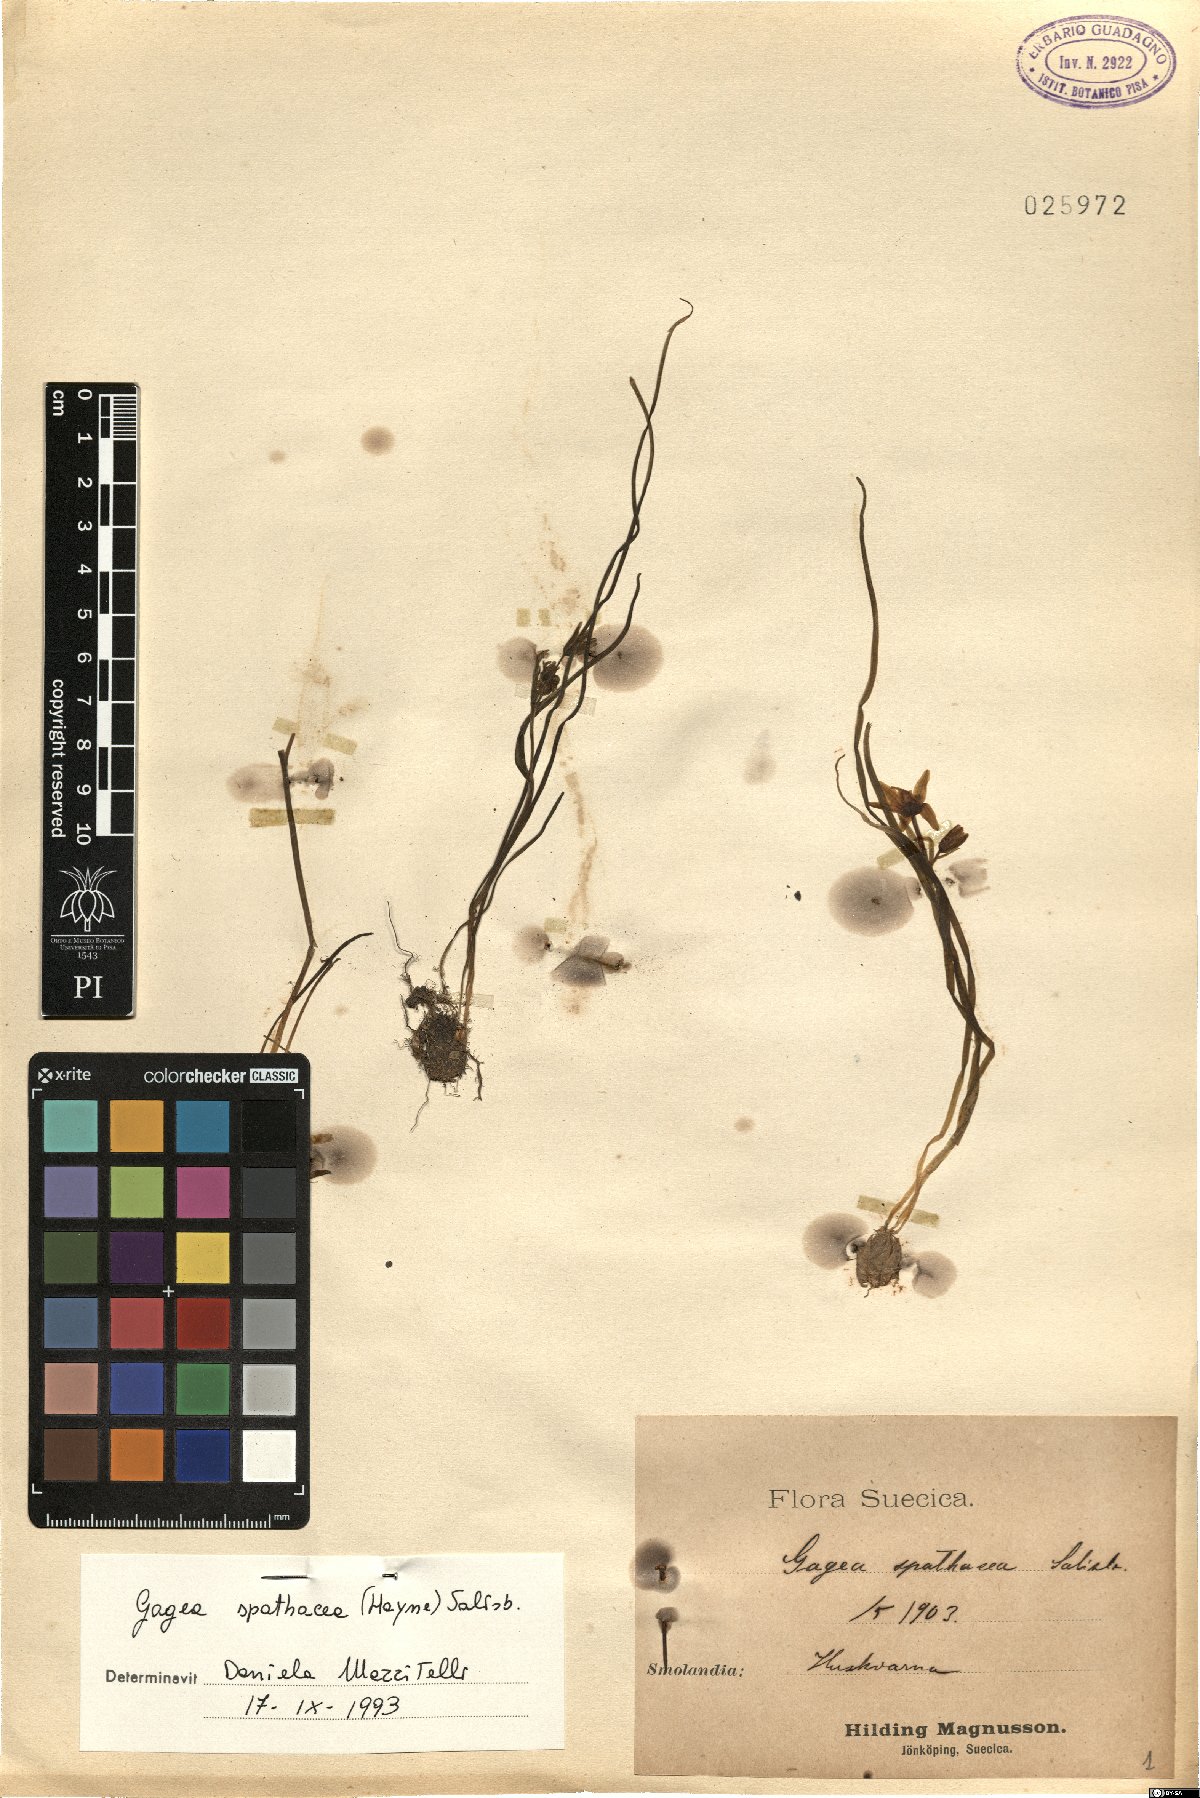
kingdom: Plantae
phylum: Tracheophyta
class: Liliopsida
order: Liliales
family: Liliaceae
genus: Gagea
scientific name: Gagea spathacea
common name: Belgian gagea
